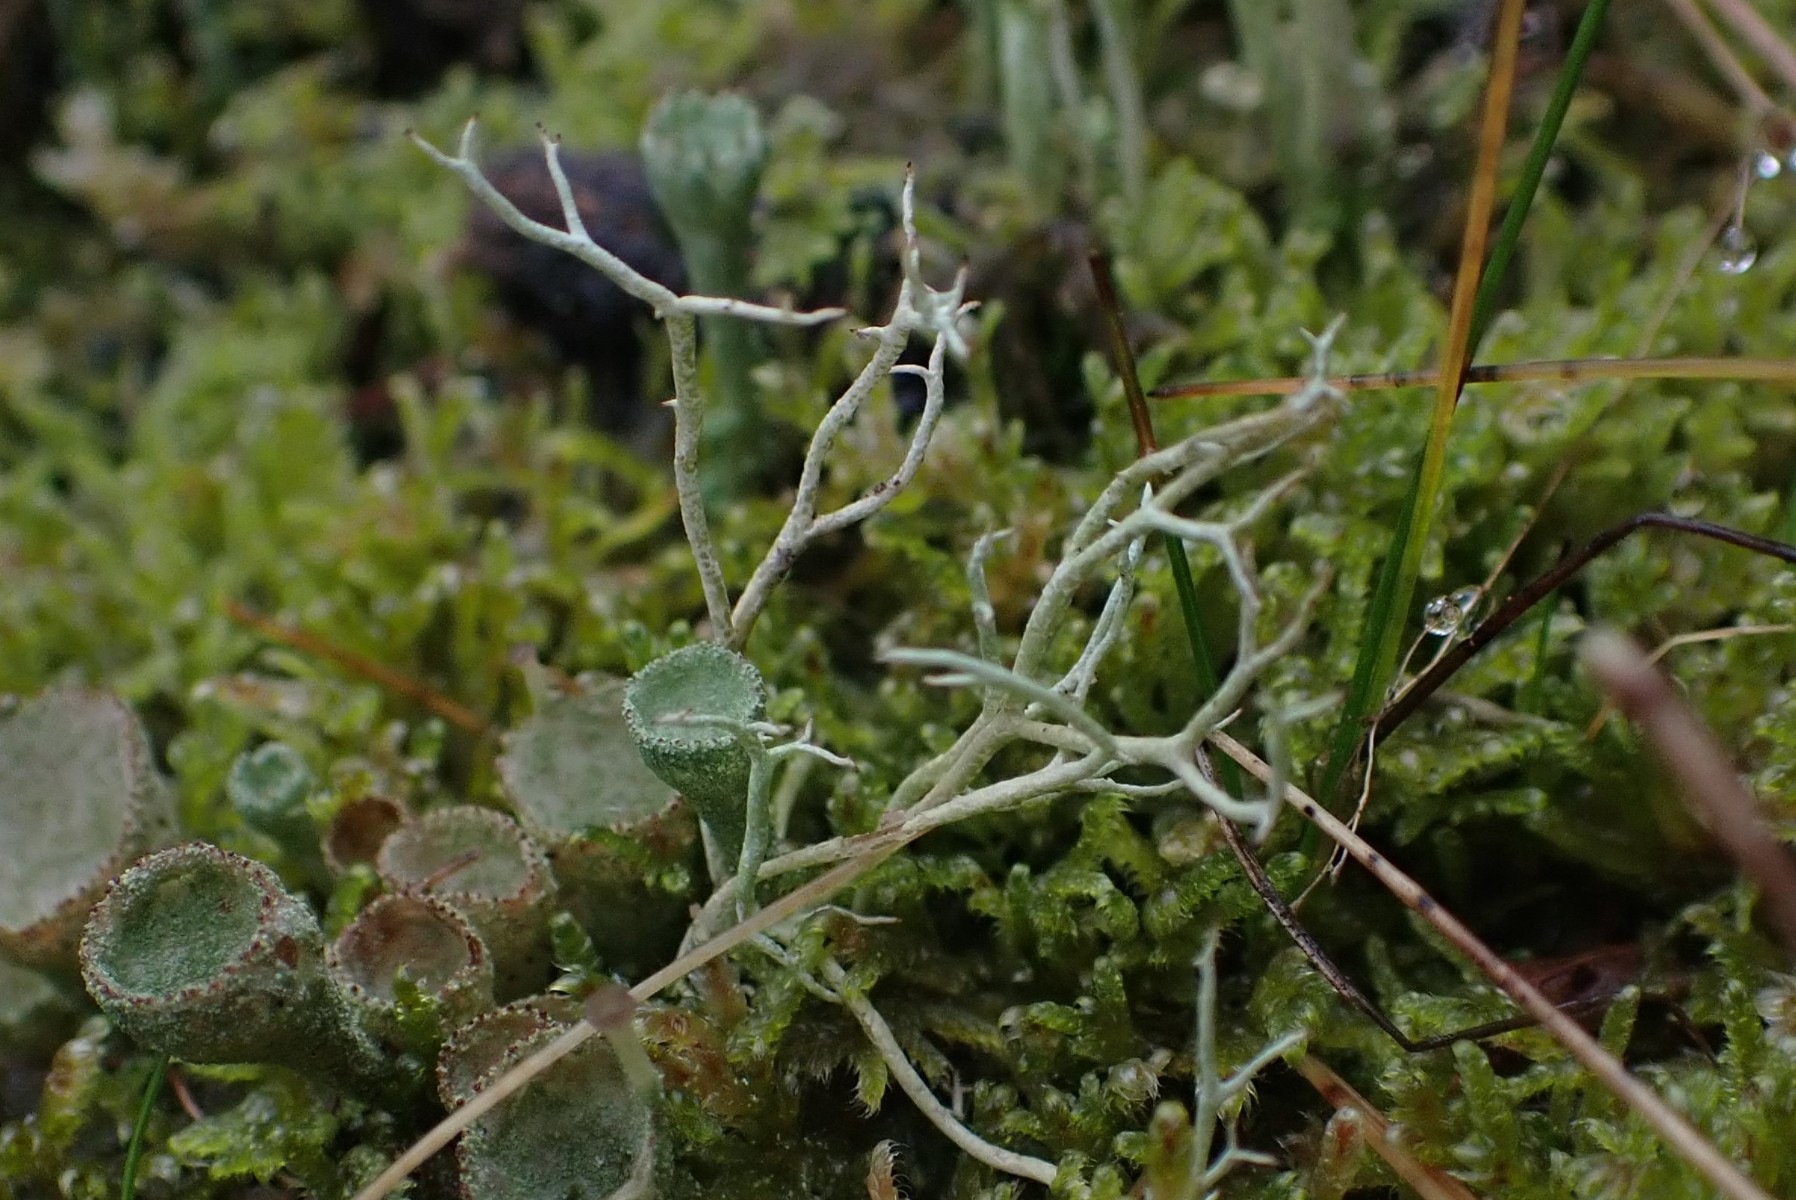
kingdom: Fungi
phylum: Ascomycota
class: Lecanoromycetes
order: Lecanorales
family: Cladoniaceae
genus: Cladonia
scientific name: Cladonia furcata
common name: kløftet bægerlav
